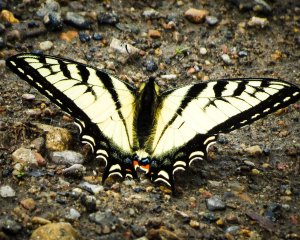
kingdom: Animalia
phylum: Arthropoda
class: Insecta
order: Lepidoptera
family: Papilionidae
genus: Pterourus
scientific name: Pterourus canadensis
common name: Canadian Tiger Swallowtail
